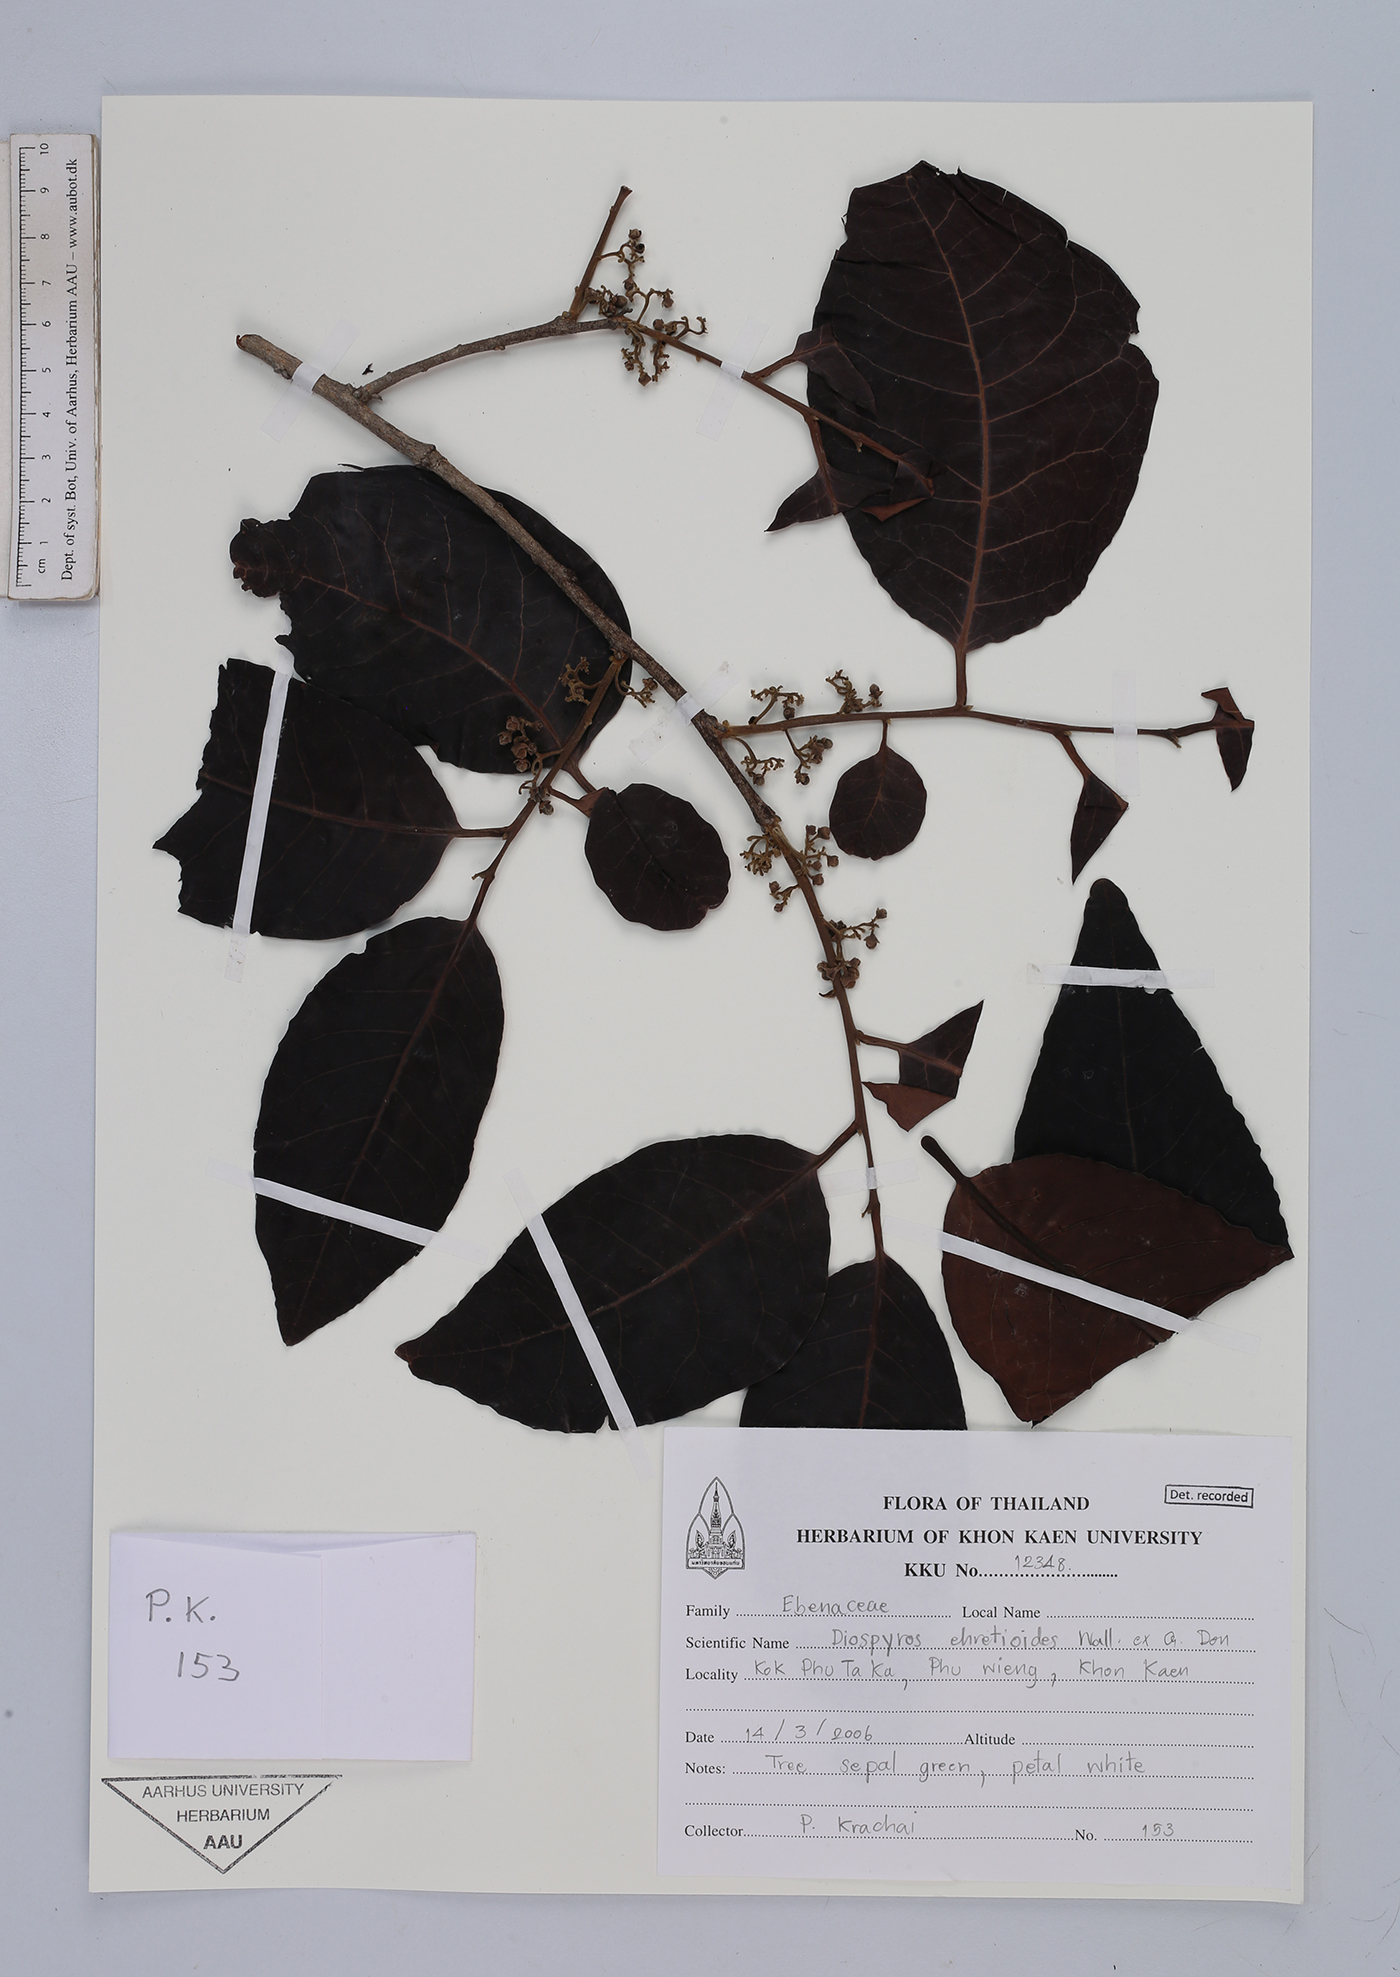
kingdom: Plantae
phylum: Tracheophyta
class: Magnoliopsida
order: Ericales
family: Ebenaceae
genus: Diospyros
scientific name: Diospyros ehretioides
